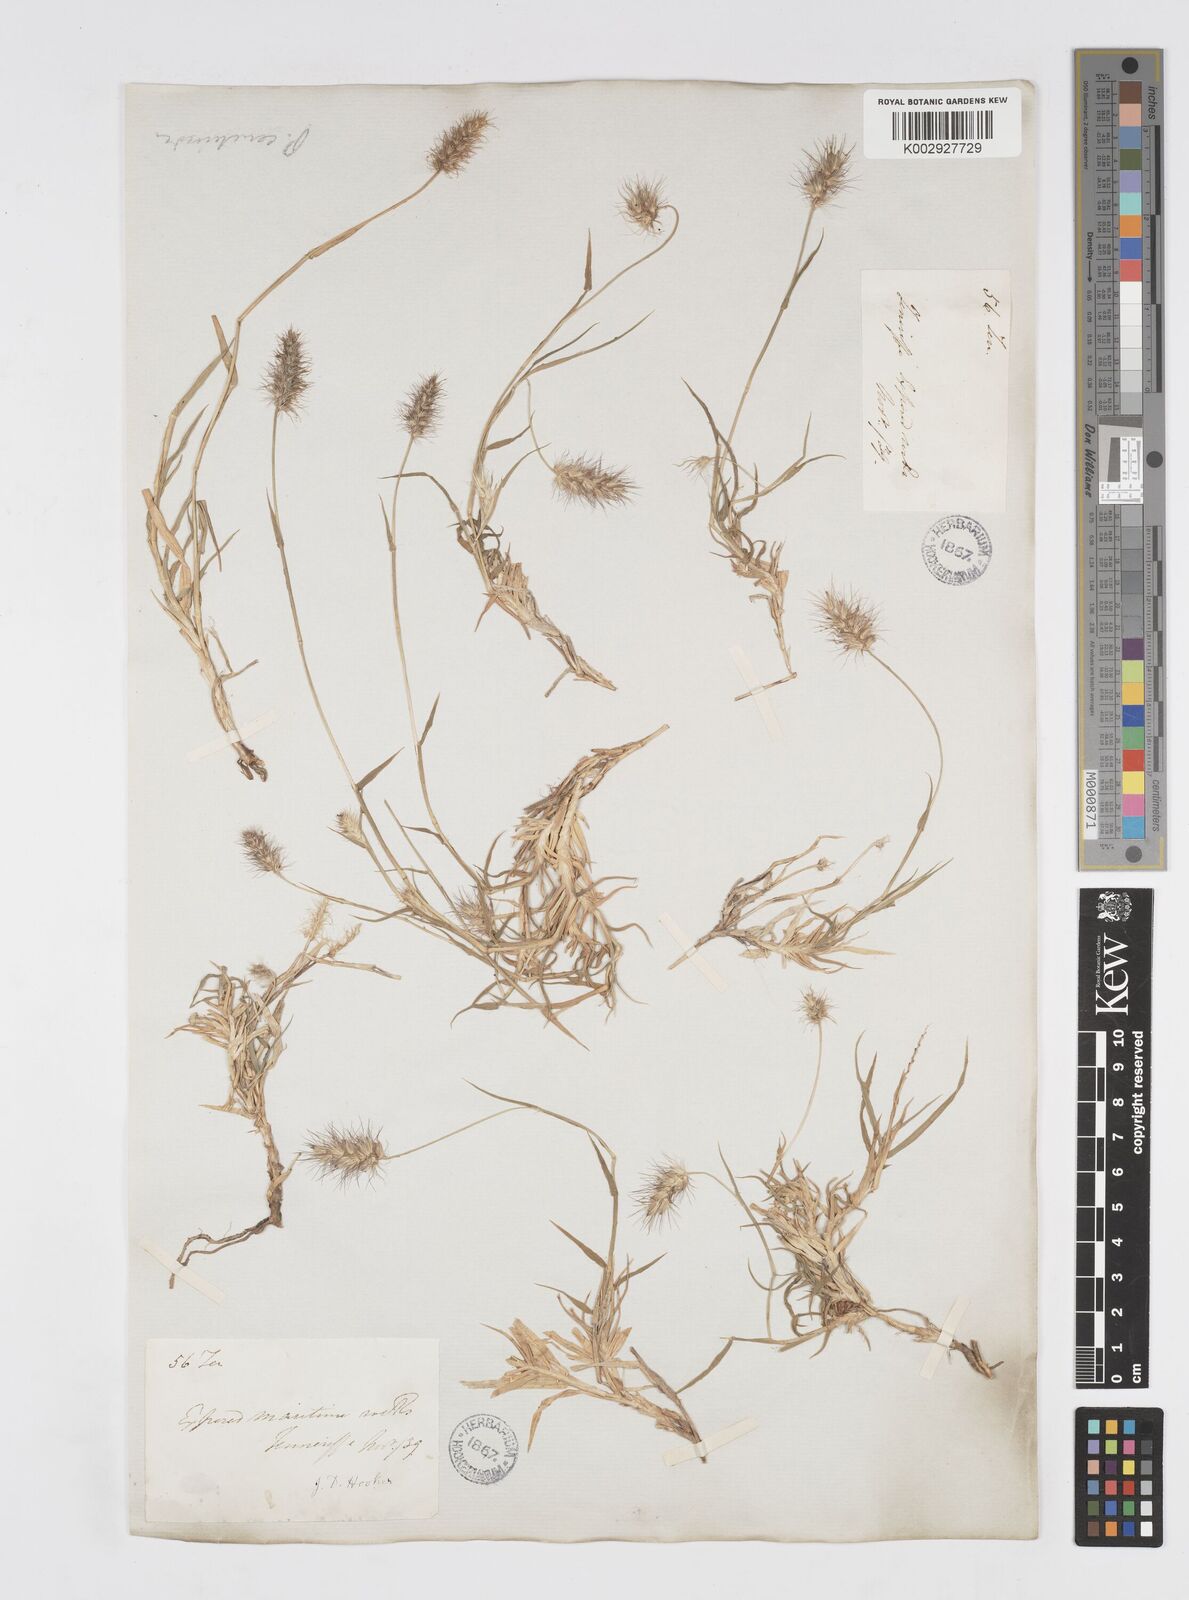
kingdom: Plantae
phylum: Tracheophyta
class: Liliopsida
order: Poales
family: Poaceae
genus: Cenchrus
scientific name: Cenchrus ciliaris
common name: Buffelgrass
